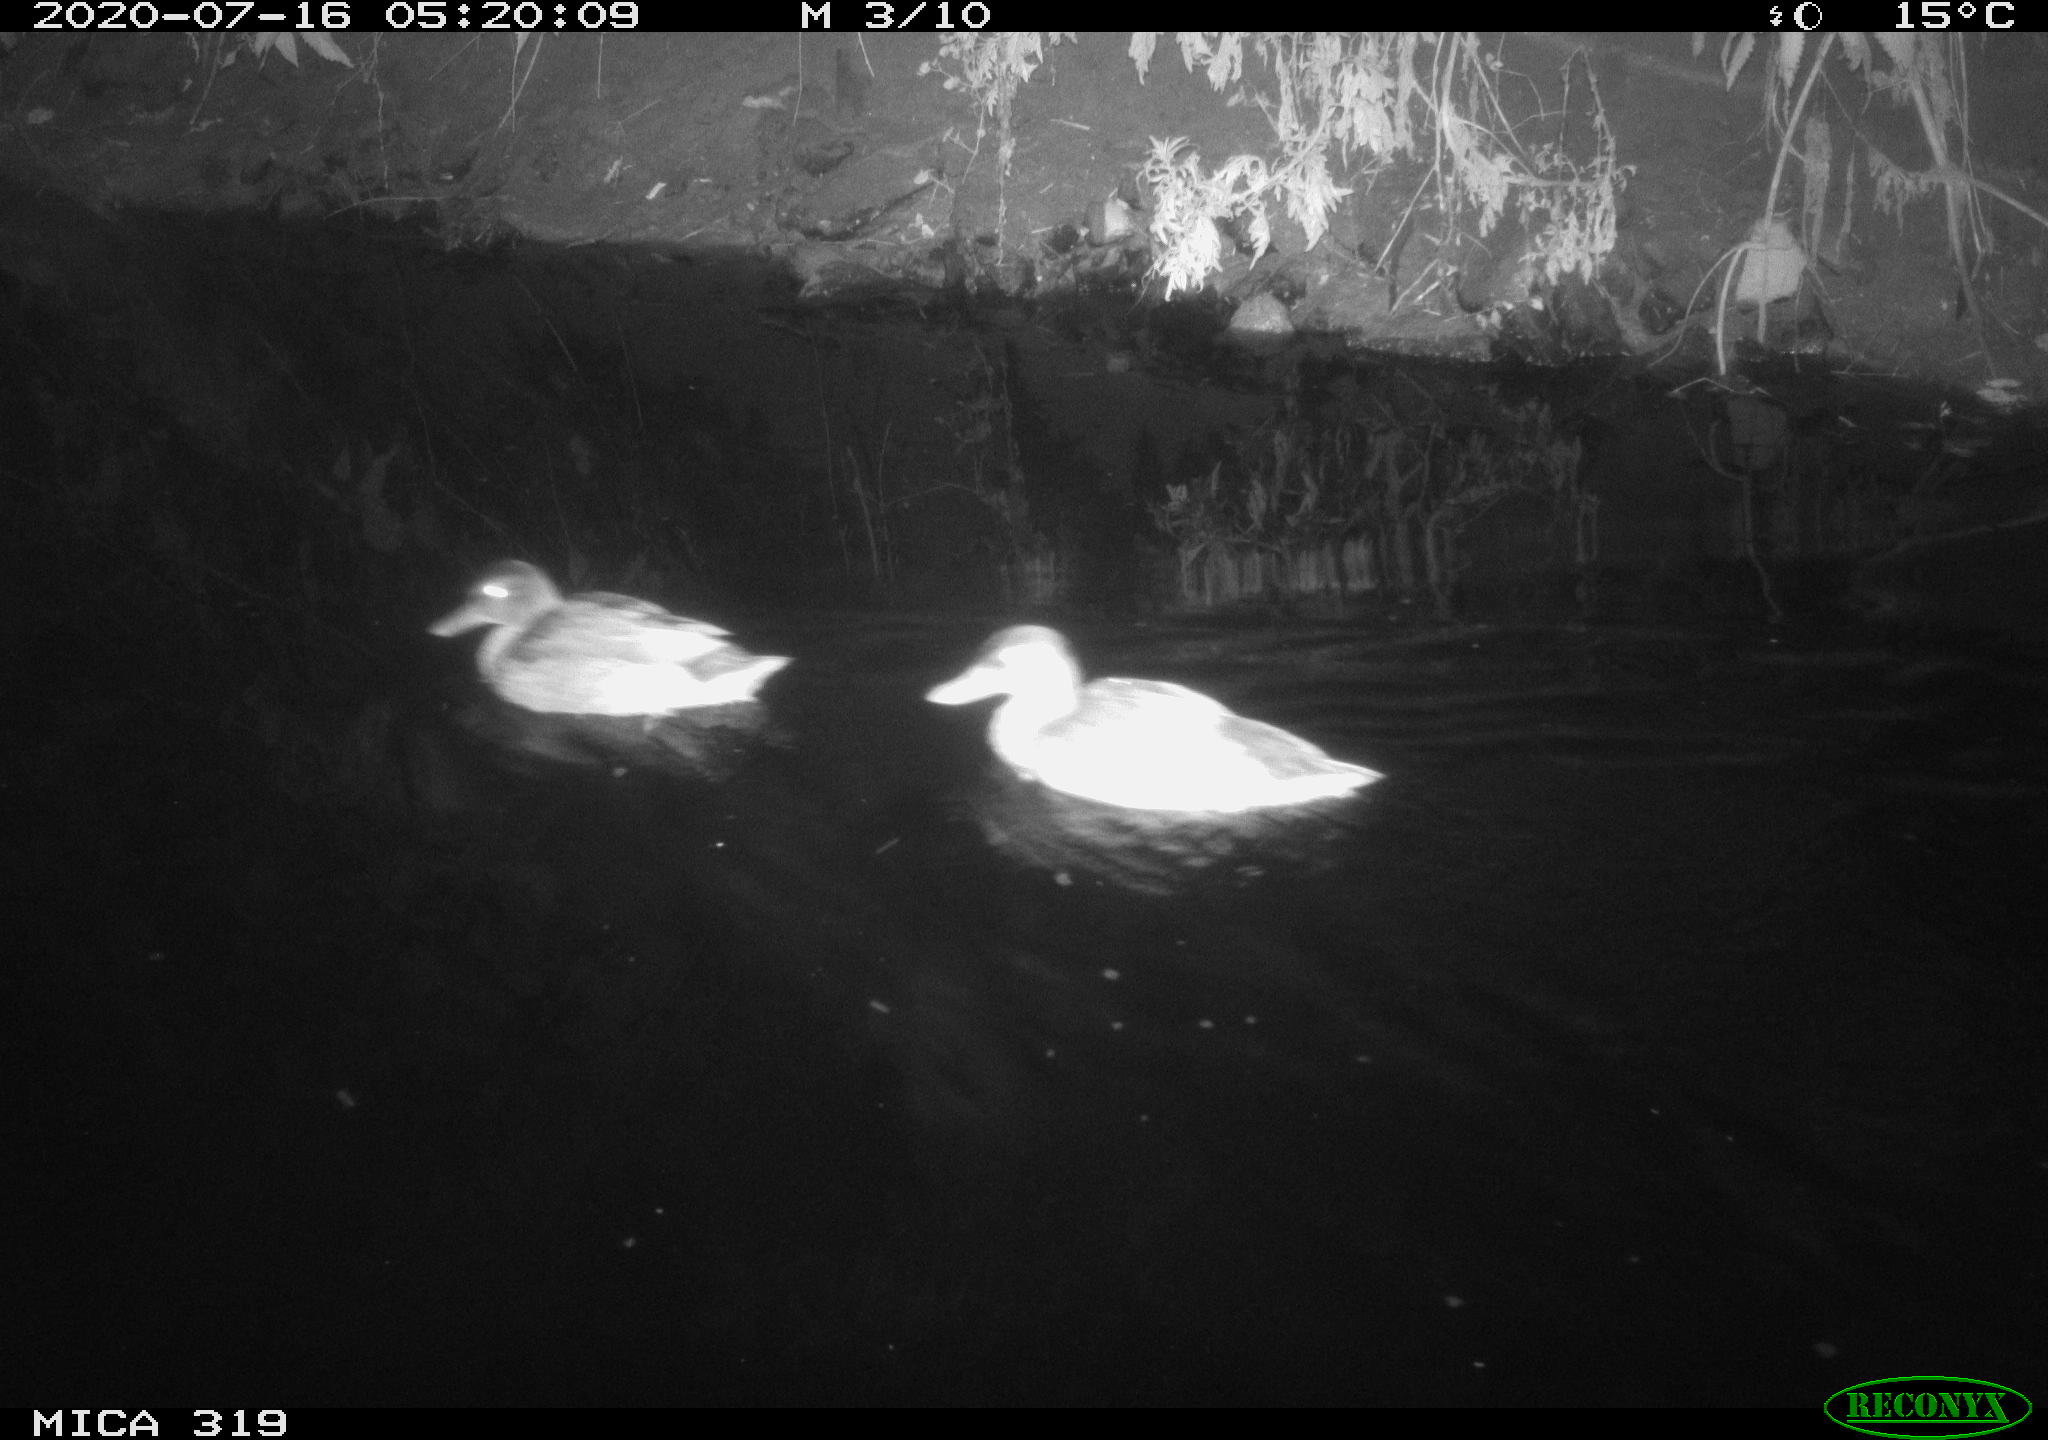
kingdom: Animalia
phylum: Chordata
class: Aves
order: Anseriformes
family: Anatidae
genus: Anas
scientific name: Anas platyrhynchos
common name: Mallard
